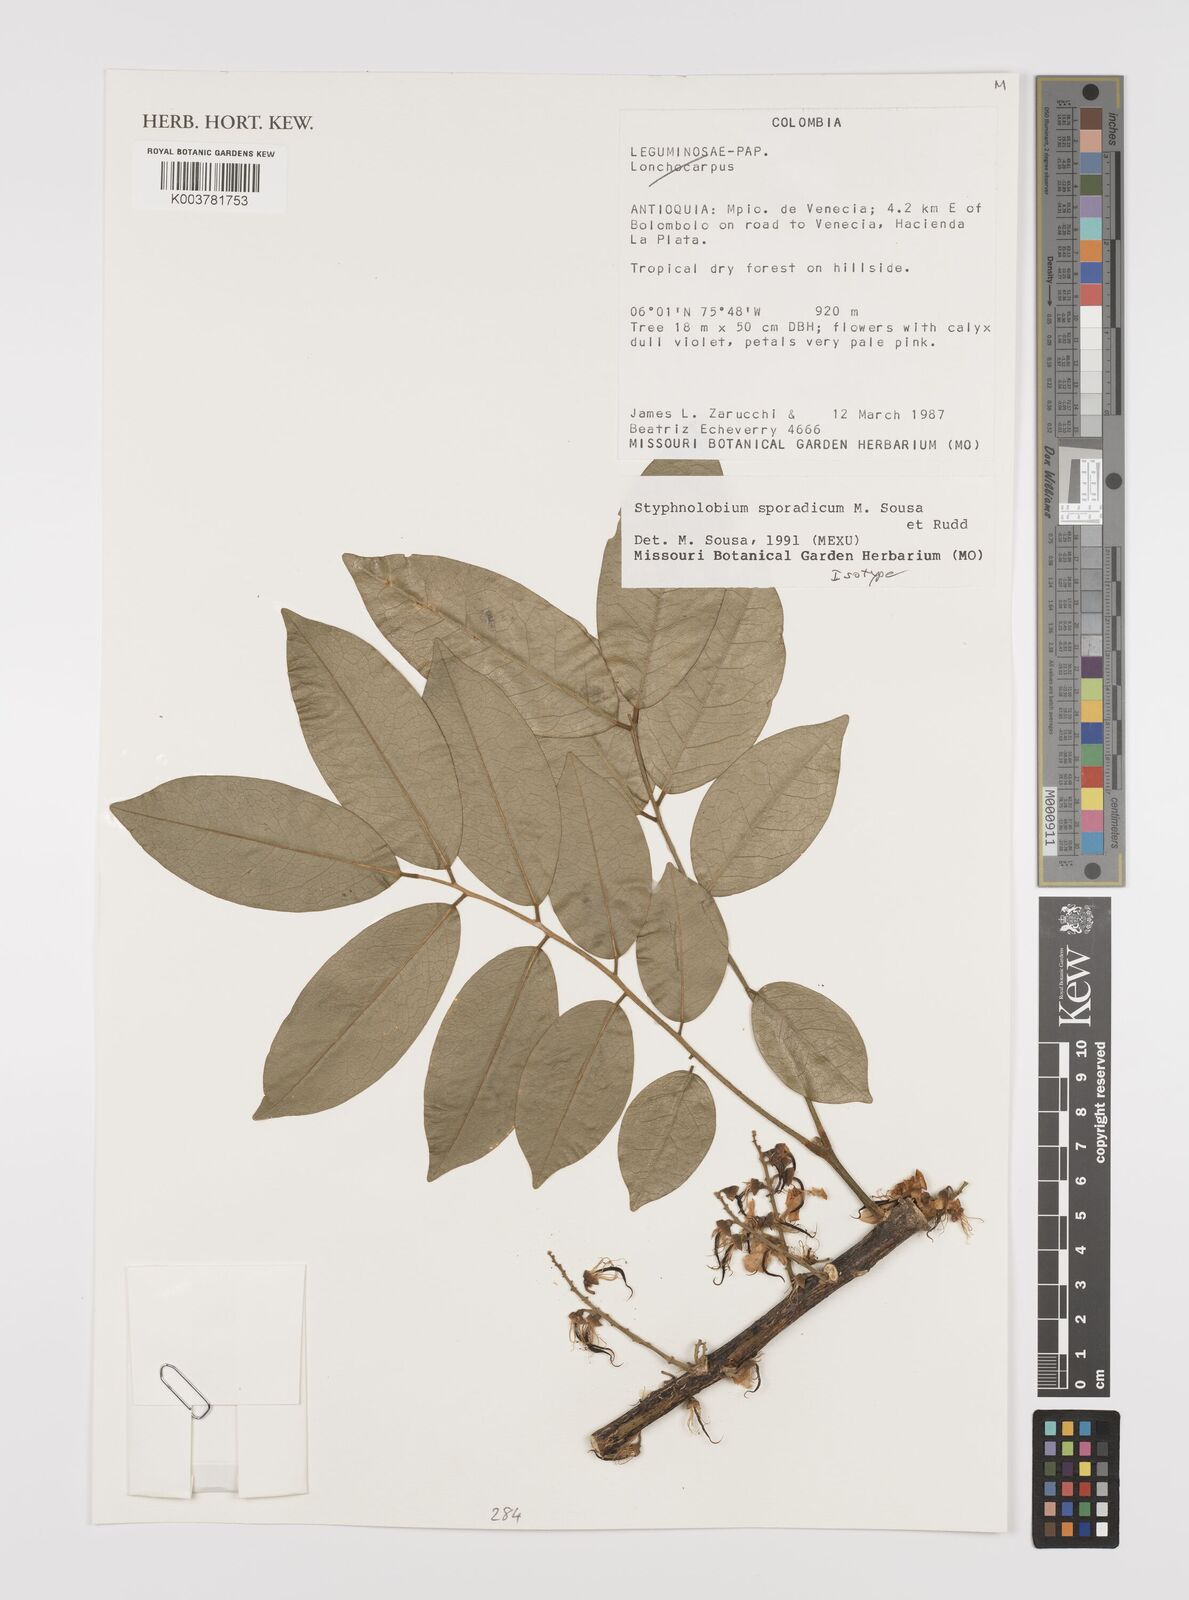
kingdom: Plantae
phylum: Tracheophyta
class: Magnoliopsida
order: Fabales
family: Fabaceae
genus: Styphnolobium
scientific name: Styphnolobium sporadicum
